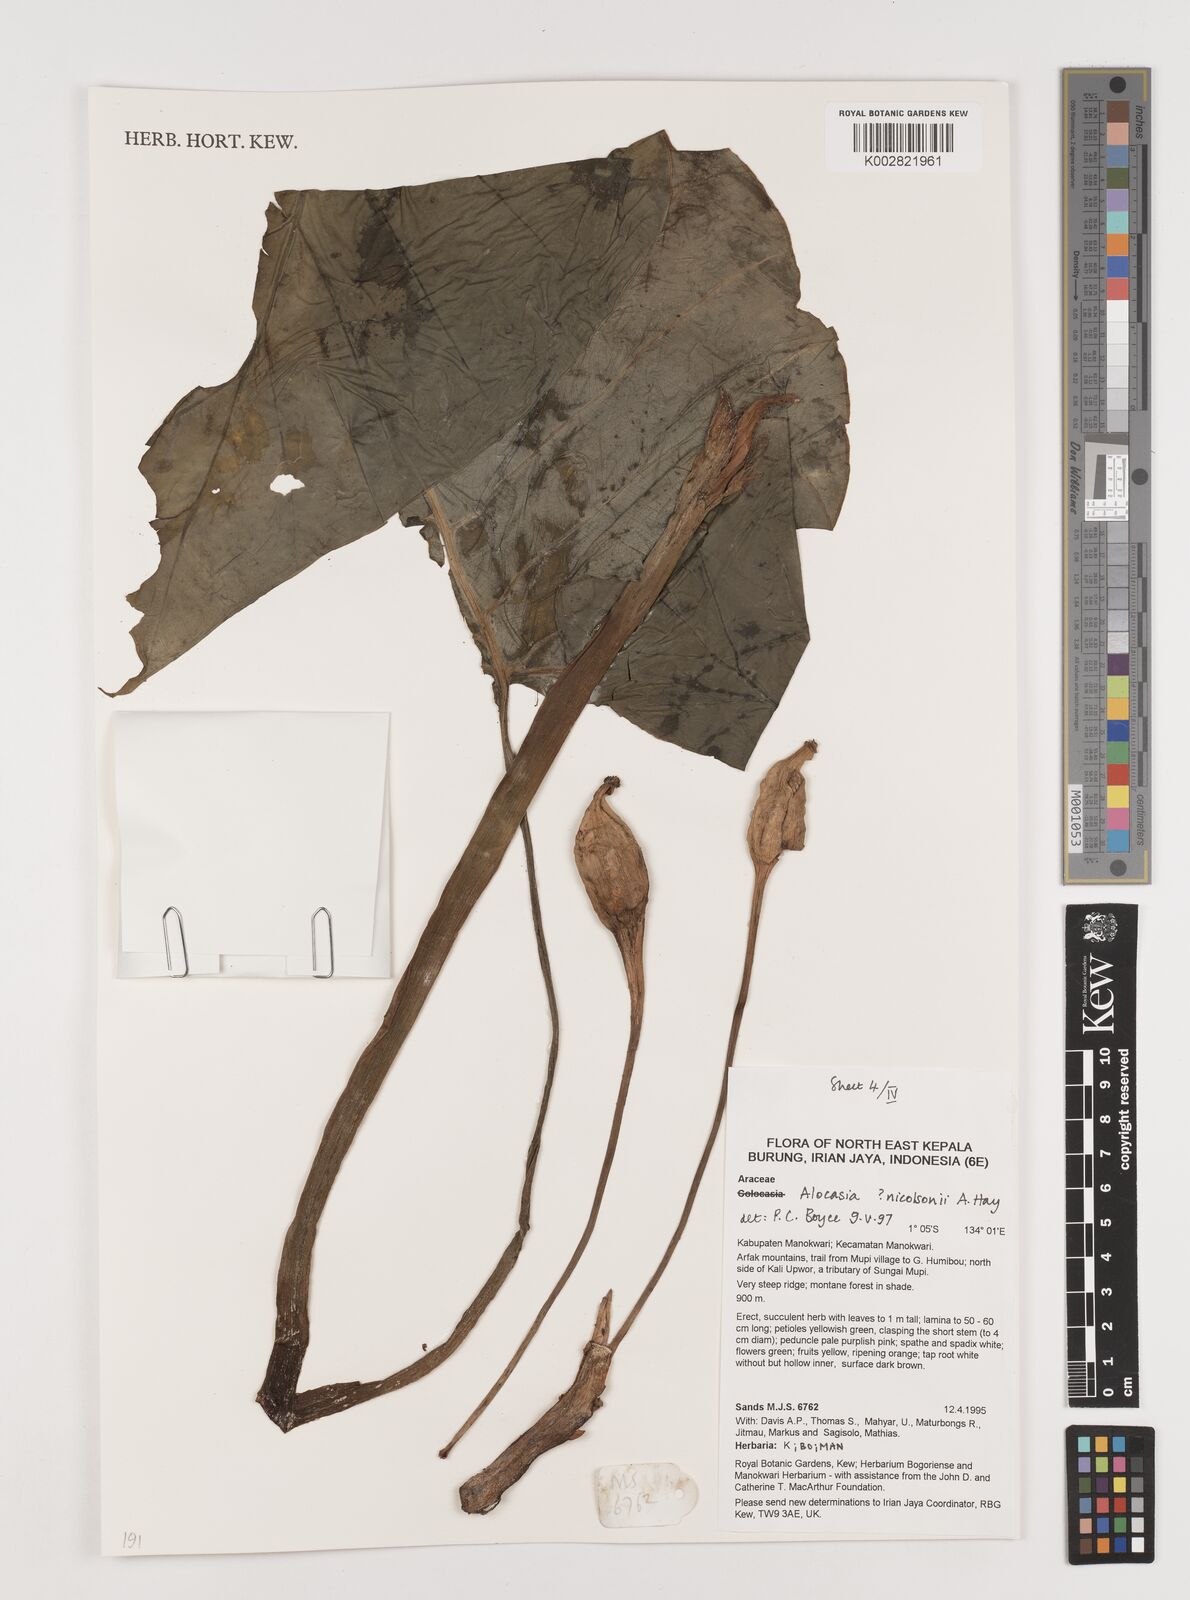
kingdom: Plantae
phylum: Tracheophyta
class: Liliopsida
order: Alismatales
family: Araceae
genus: Alocasia
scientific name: Alocasia nicolsonii
